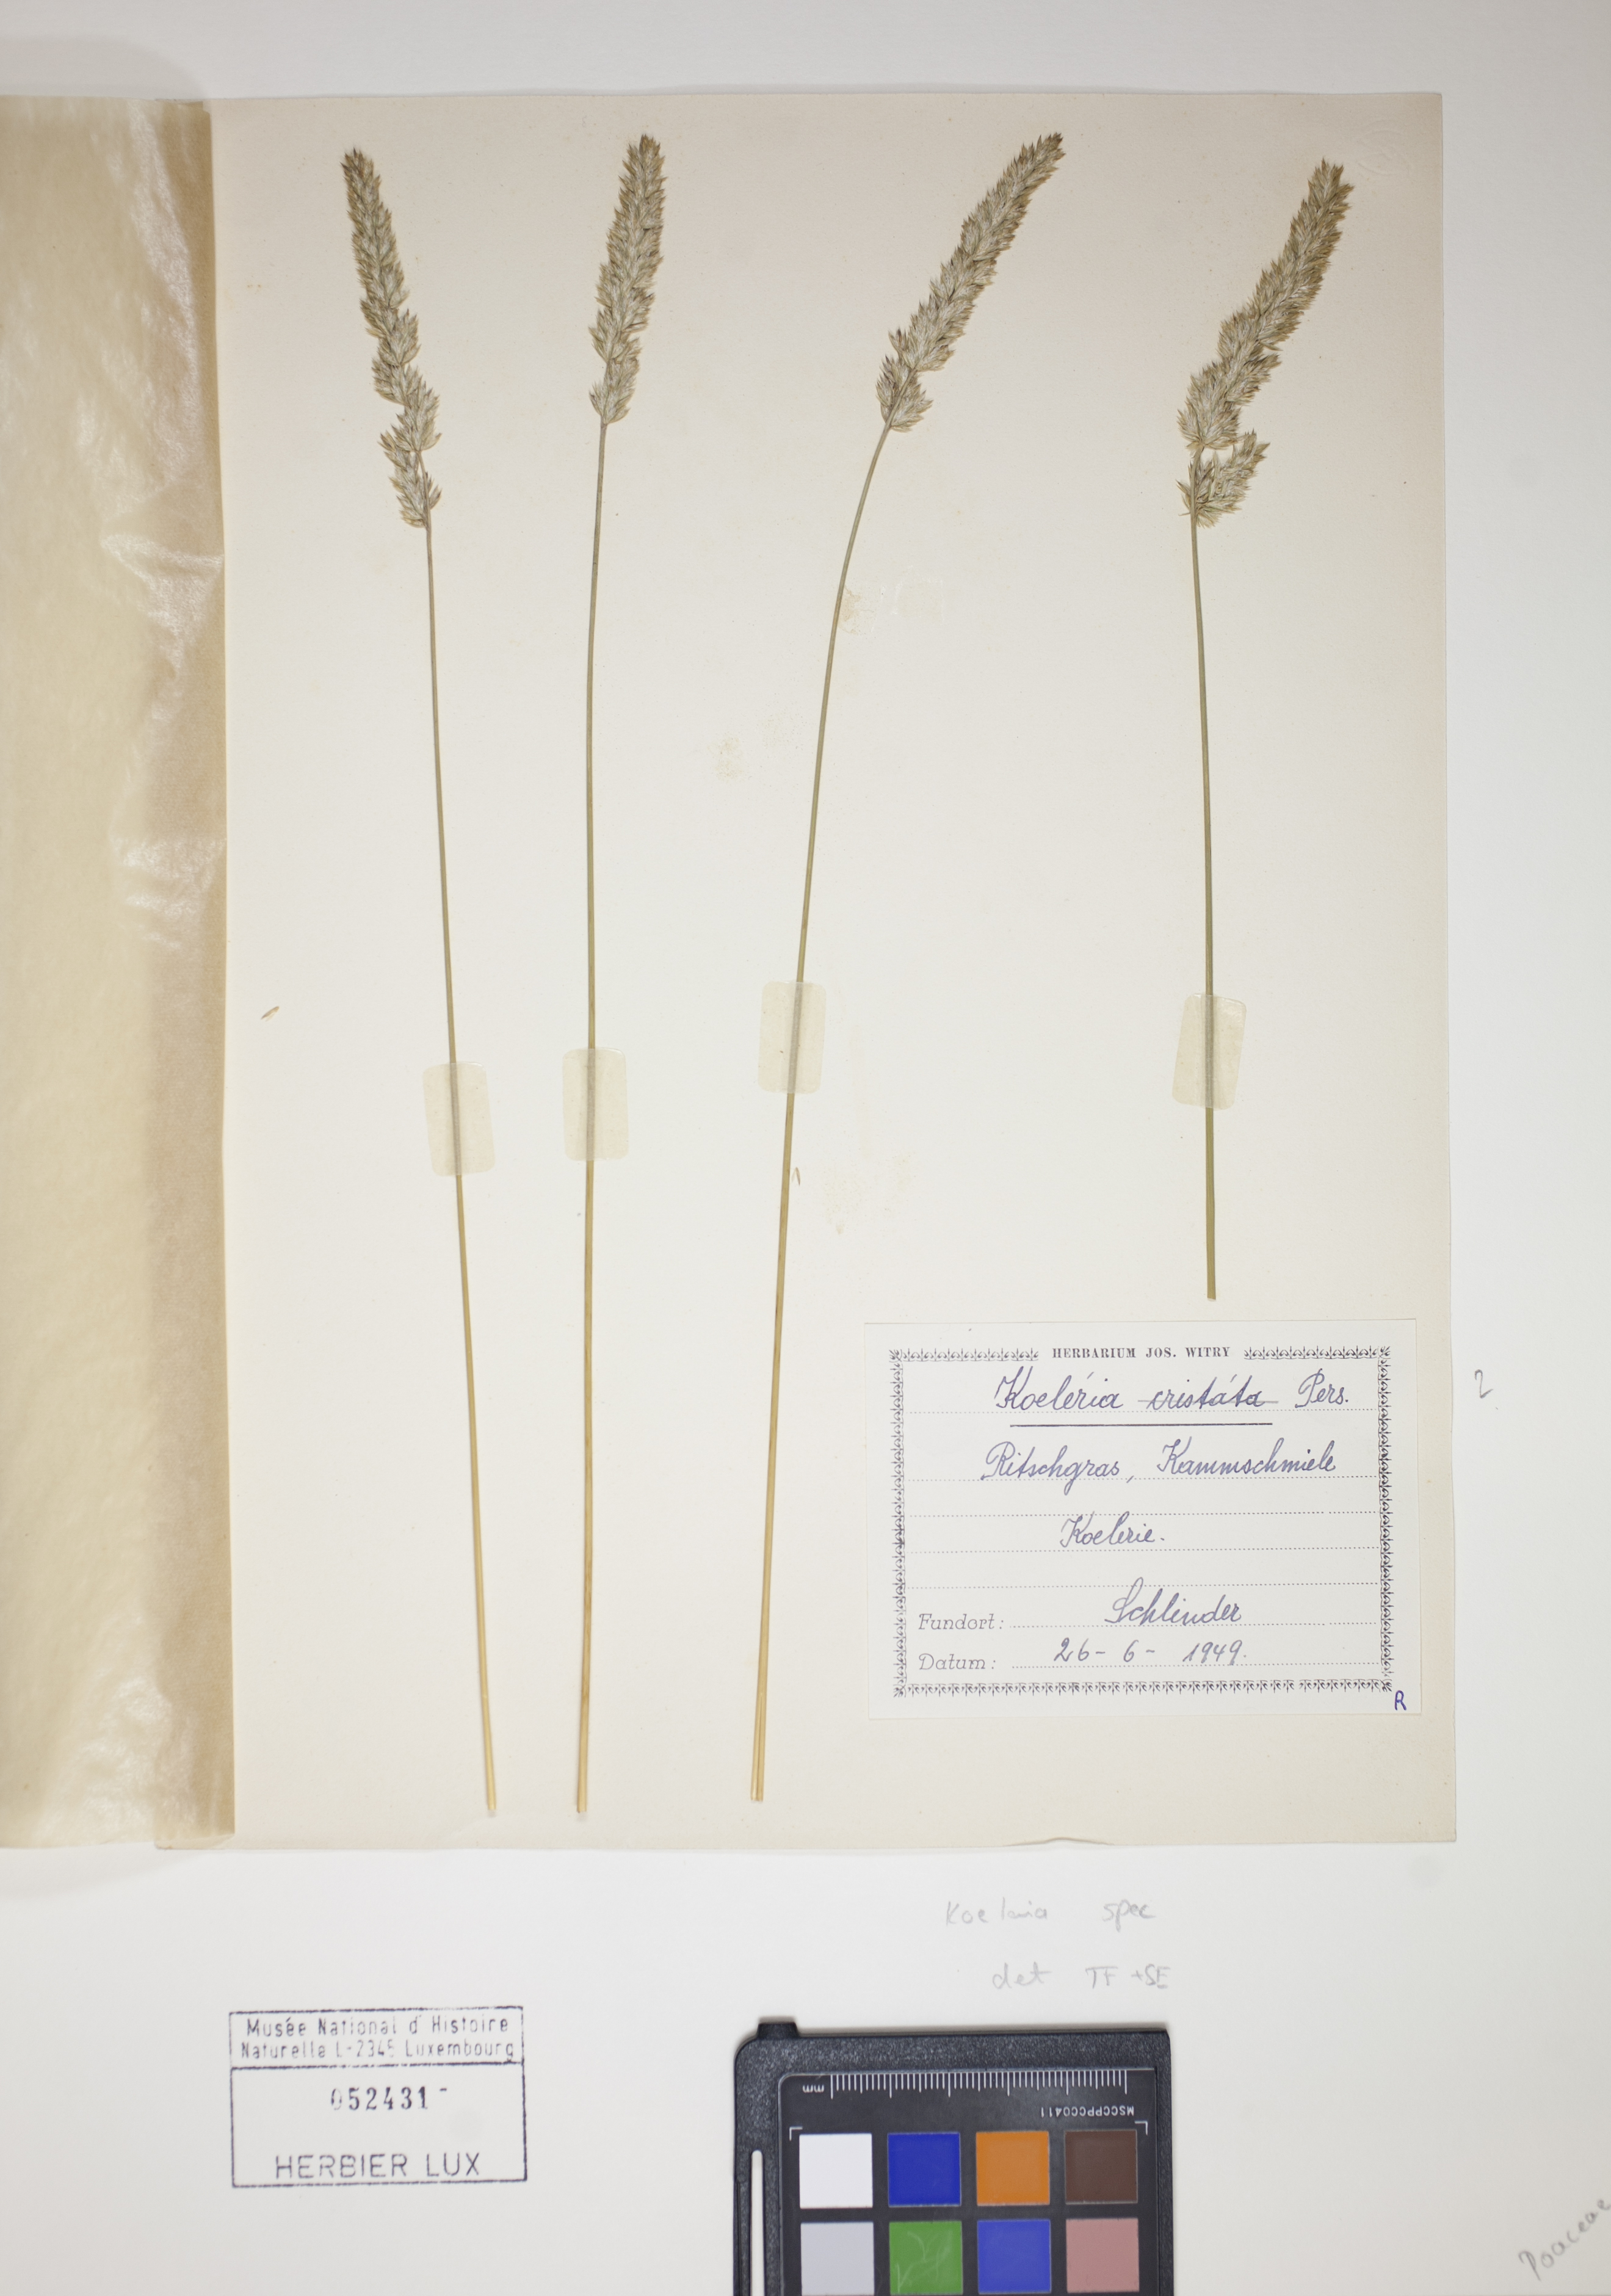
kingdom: Plantae
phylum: Tracheophyta
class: Liliopsida
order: Poales
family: Poaceae
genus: Koeleria
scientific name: Koeleria
